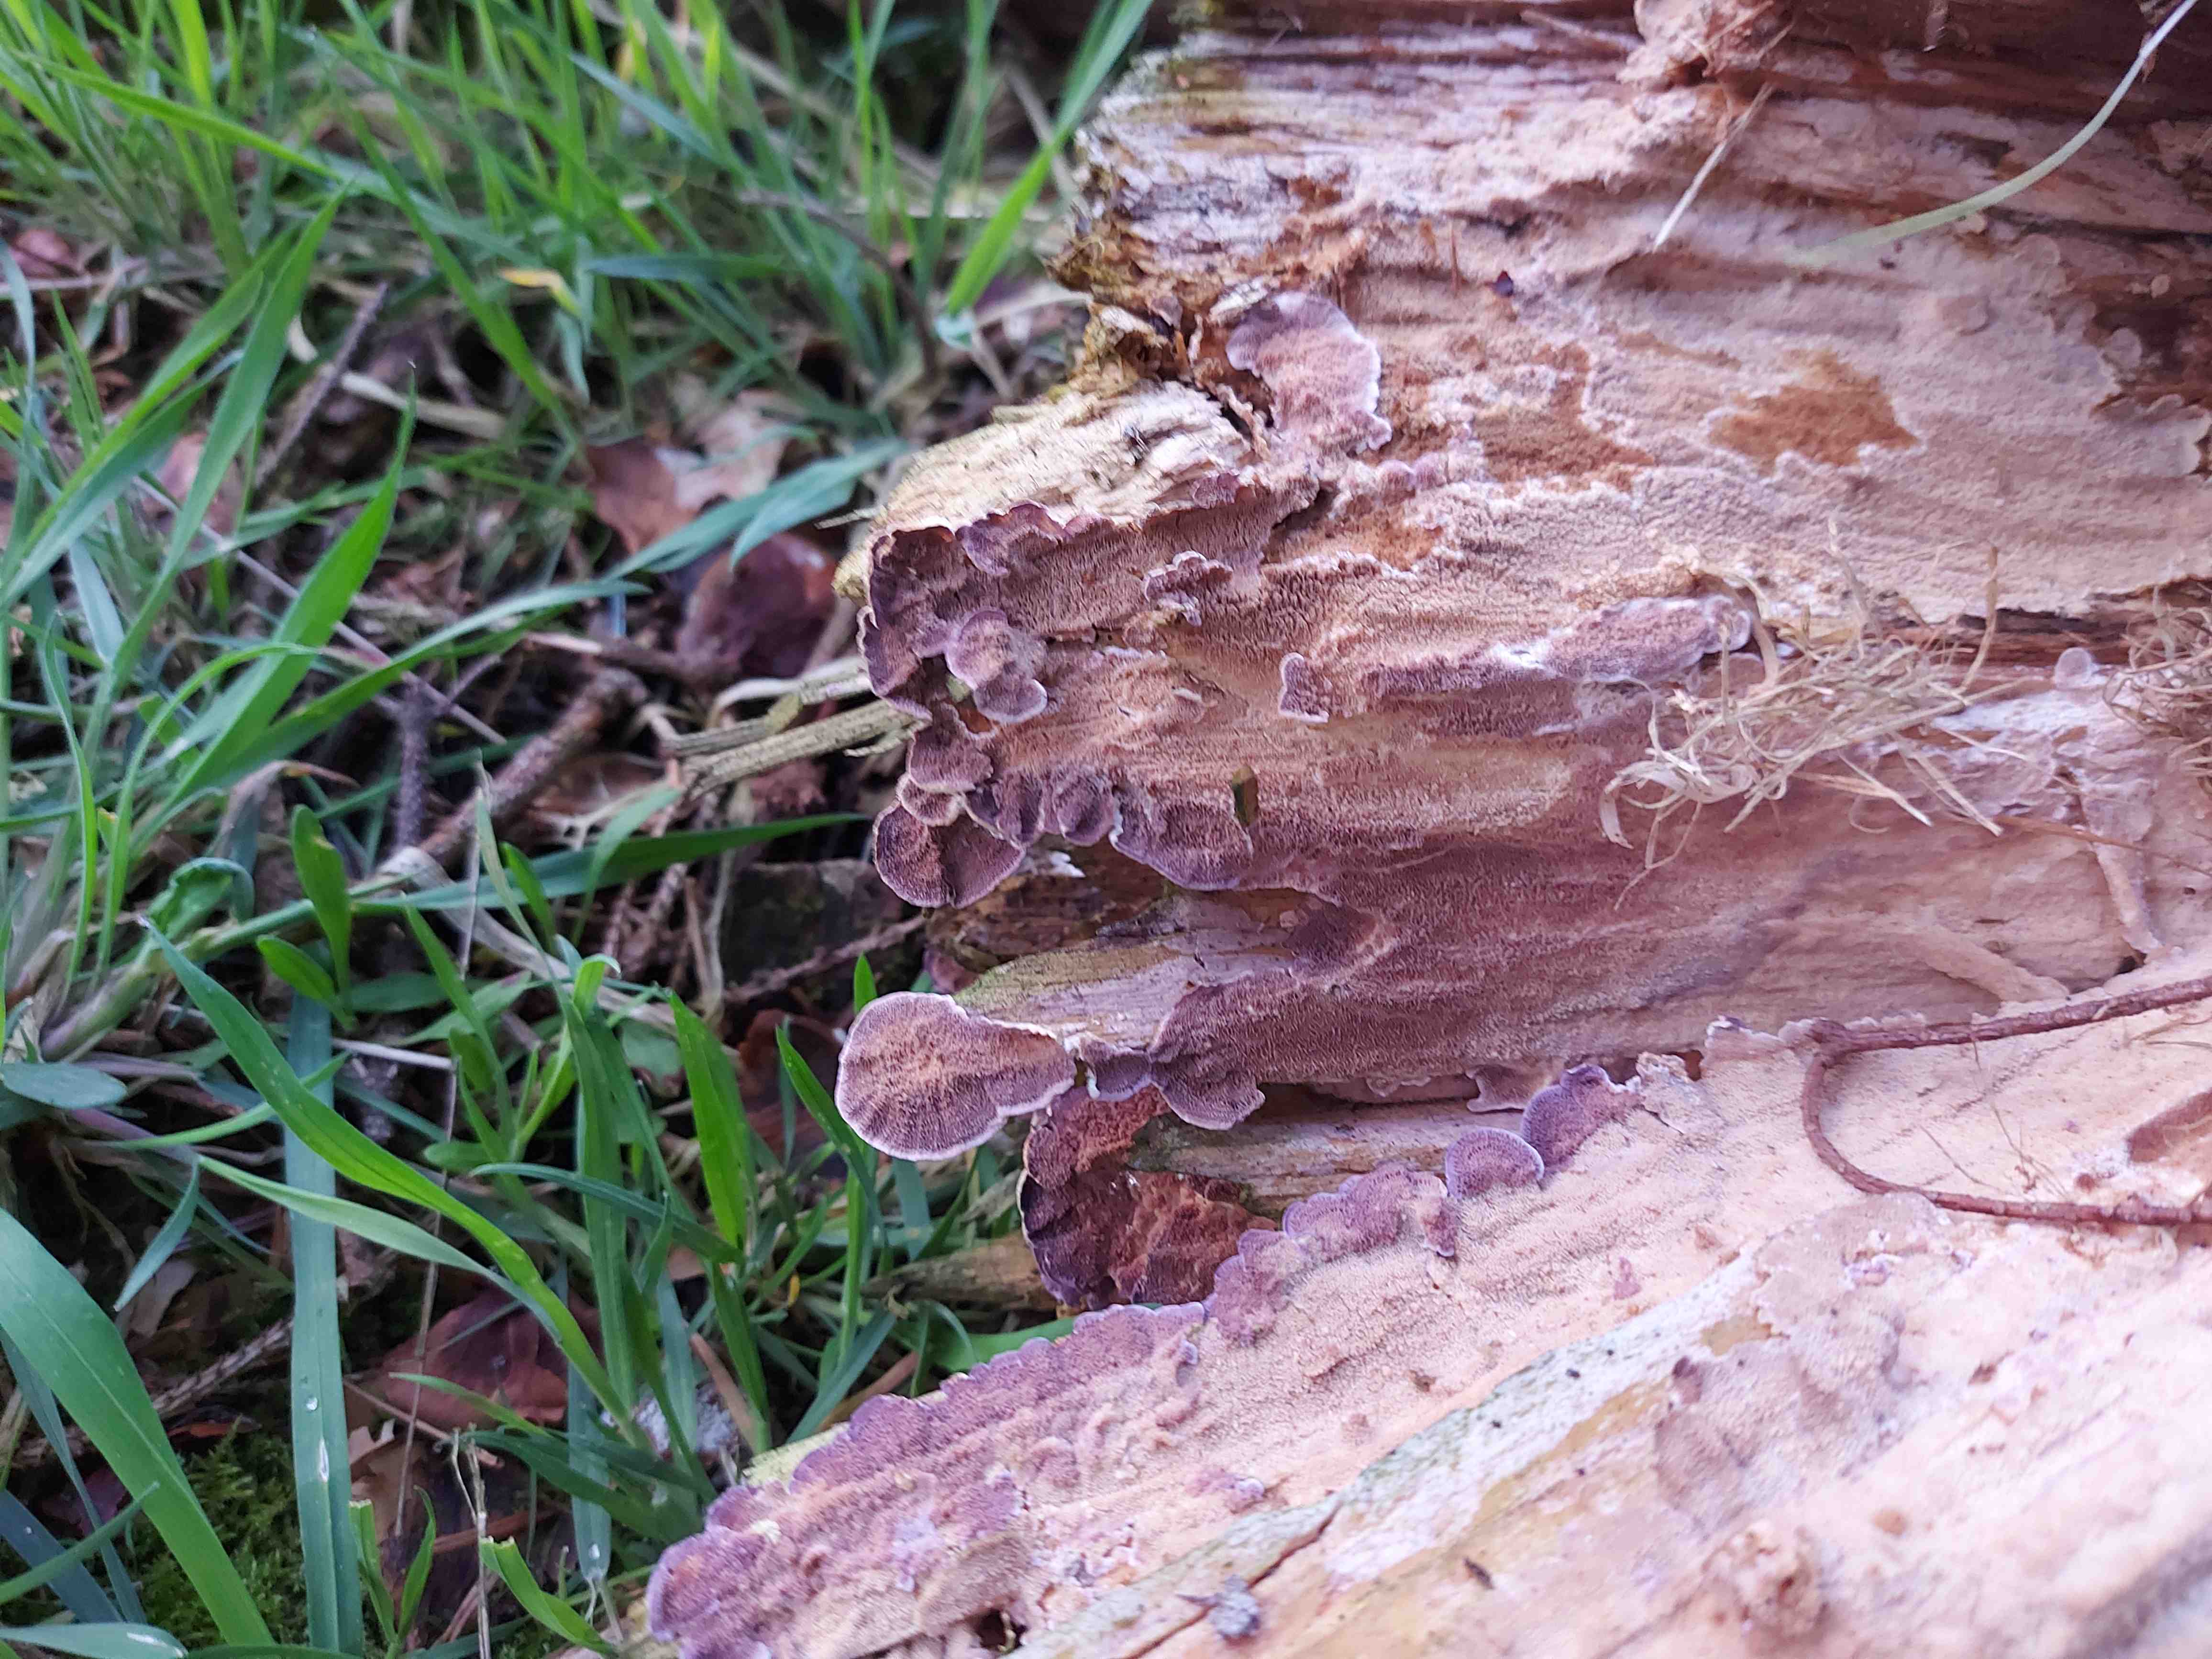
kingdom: Fungi
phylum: Basidiomycota
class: Agaricomycetes
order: Hymenochaetales
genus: Trichaptum
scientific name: Trichaptum abietinum
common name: almindelig violporesvamp
